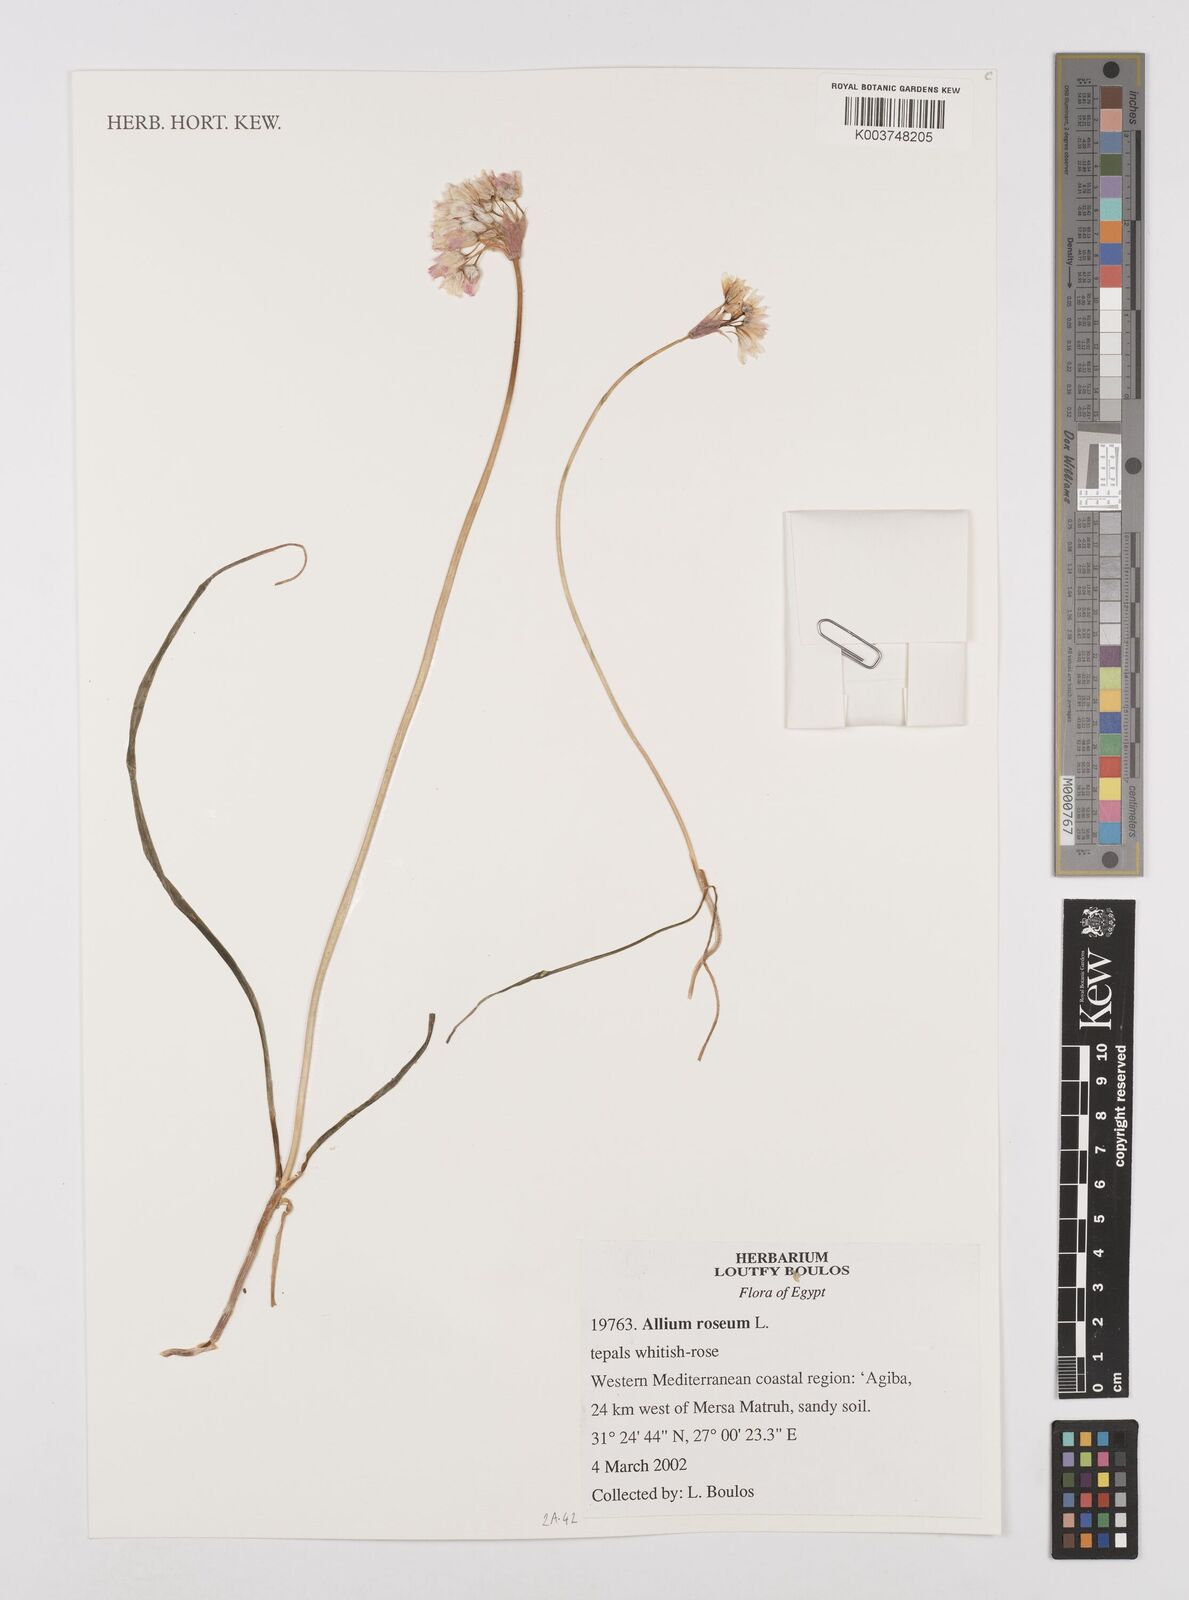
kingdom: Plantae
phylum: Tracheophyta
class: Liliopsida
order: Asparagales
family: Amaryllidaceae
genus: Allium
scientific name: Allium tripedale
